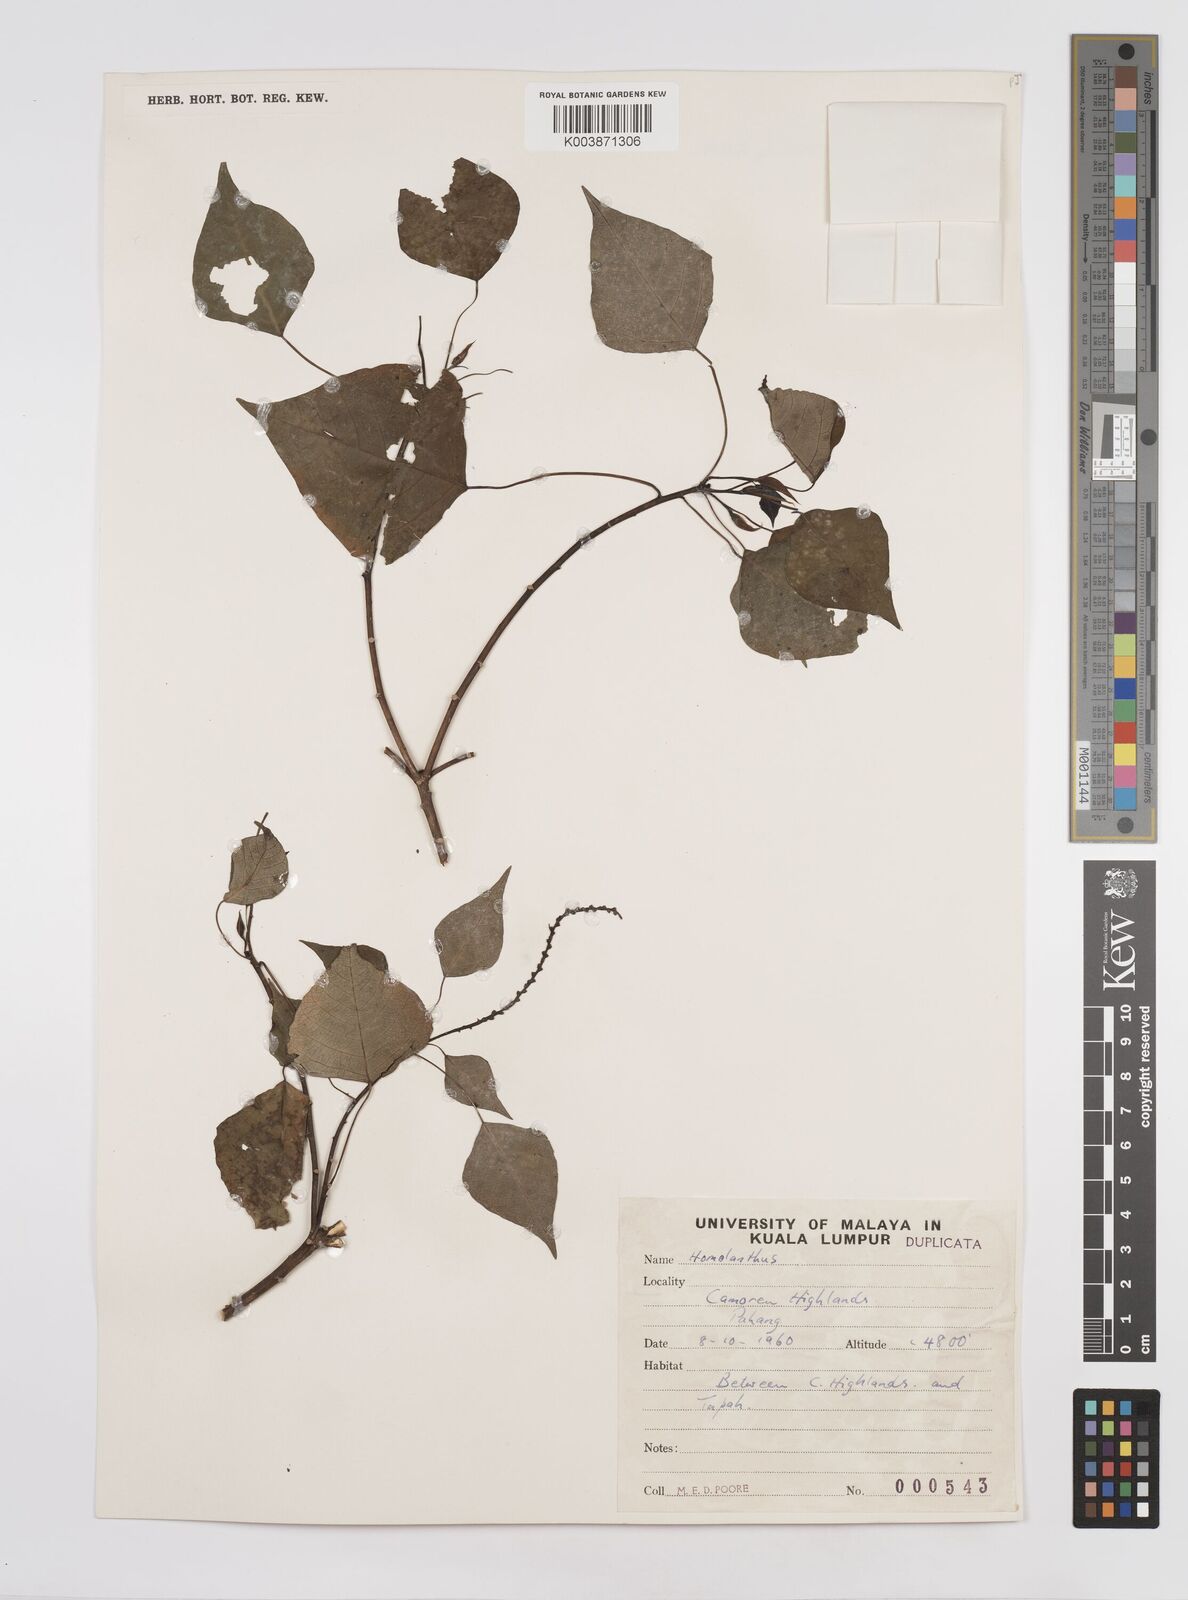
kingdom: Plantae
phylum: Tracheophyta
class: Magnoliopsida
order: Malpighiales
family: Euphorbiaceae
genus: Homalanthus
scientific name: Homalanthus populneus
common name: Spurge
